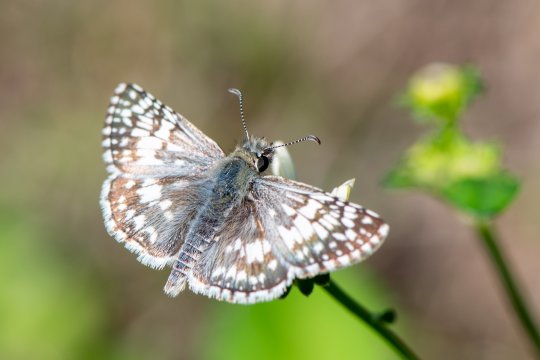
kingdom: Animalia
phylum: Arthropoda
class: Insecta
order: Lepidoptera
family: Hesperiidae
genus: Burnsius
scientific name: Burnsius albescens
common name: White Checkered-Skipper
